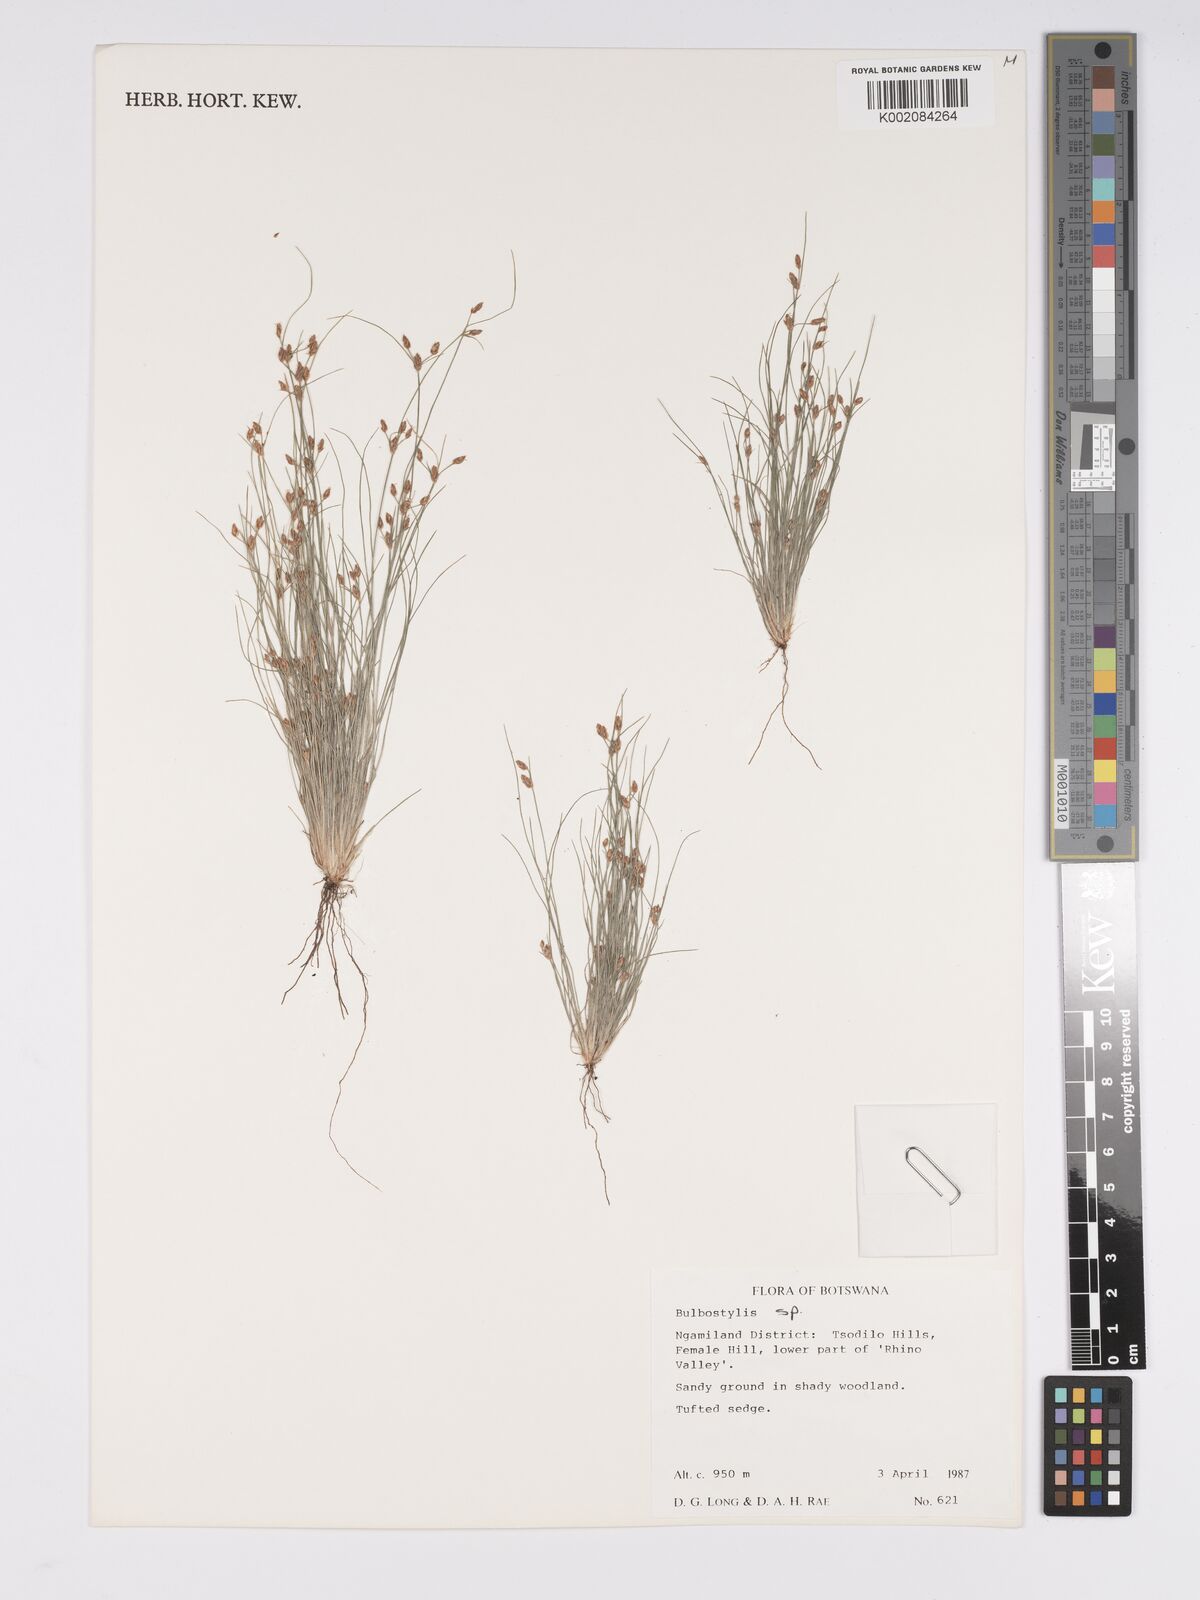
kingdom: Plantae
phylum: Tracheophyta
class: Liliopsida
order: Poales
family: Cyperaceae
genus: Bulbostylis
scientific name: Bulbostylis
